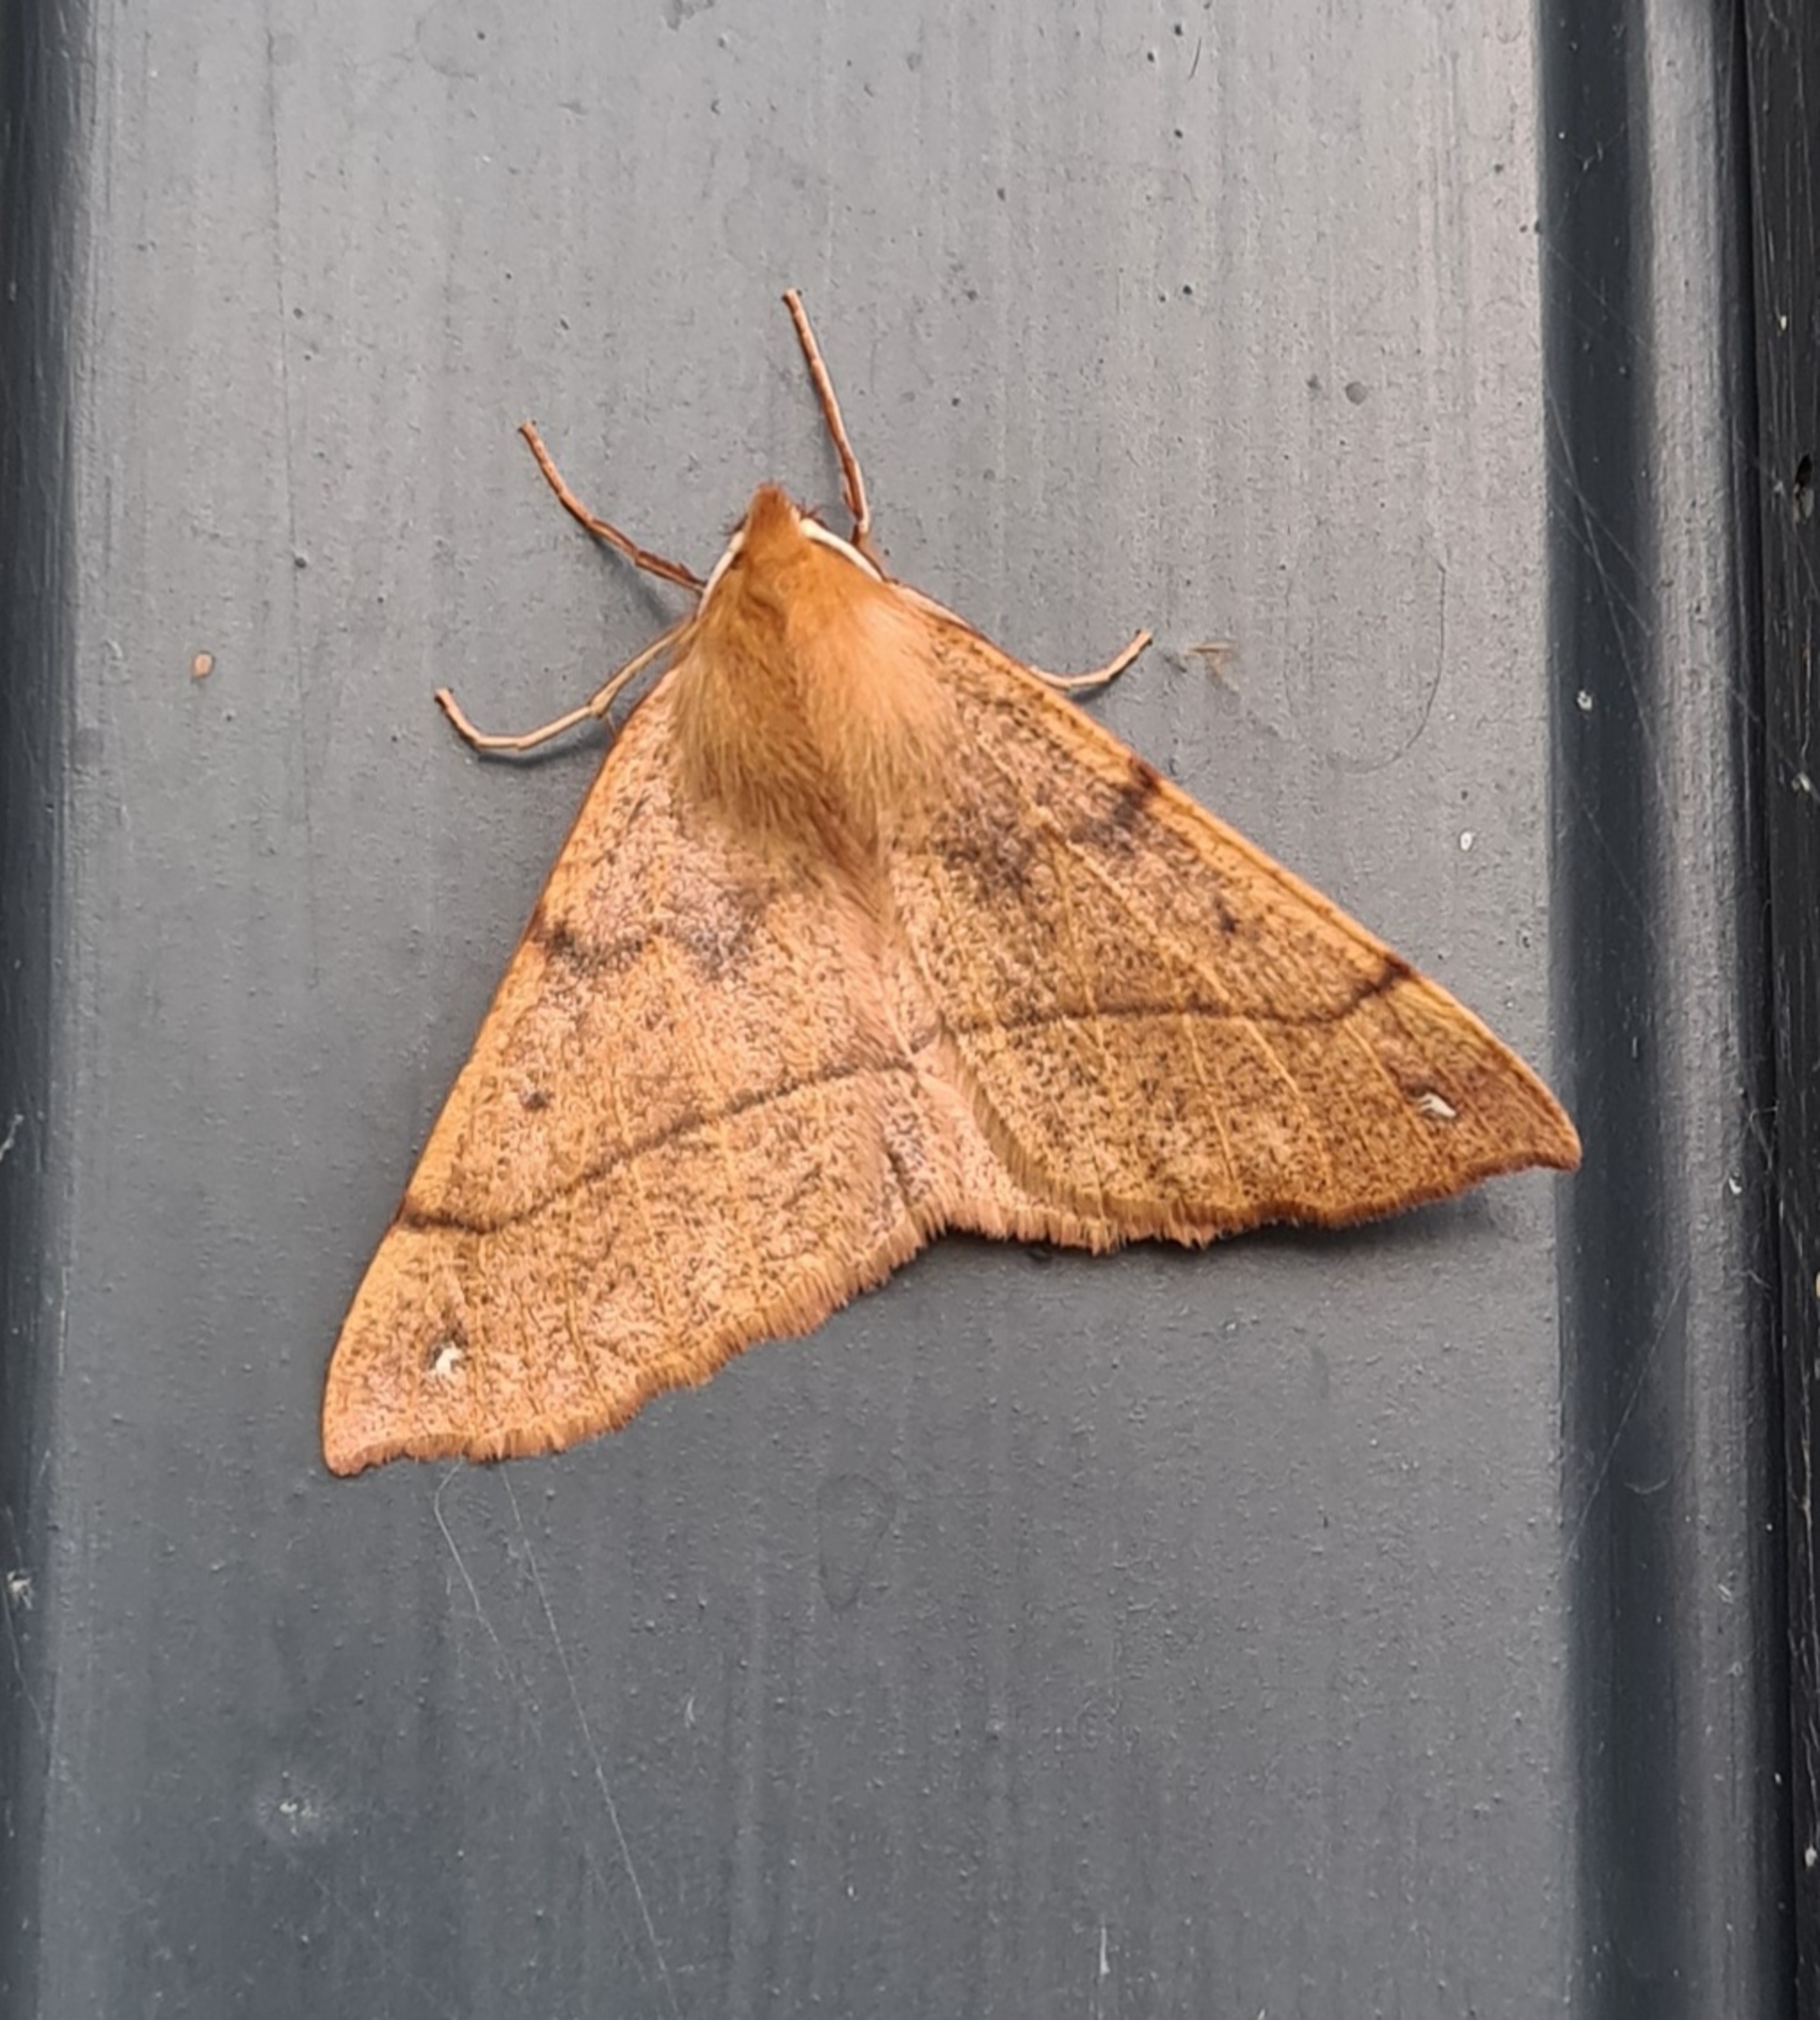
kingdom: Animalia
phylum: Arthropoda
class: Insecta
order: Lepidoptera
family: Geometridae
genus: Colotois
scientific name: Colotois pennaria
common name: Løvfaldsmåler
